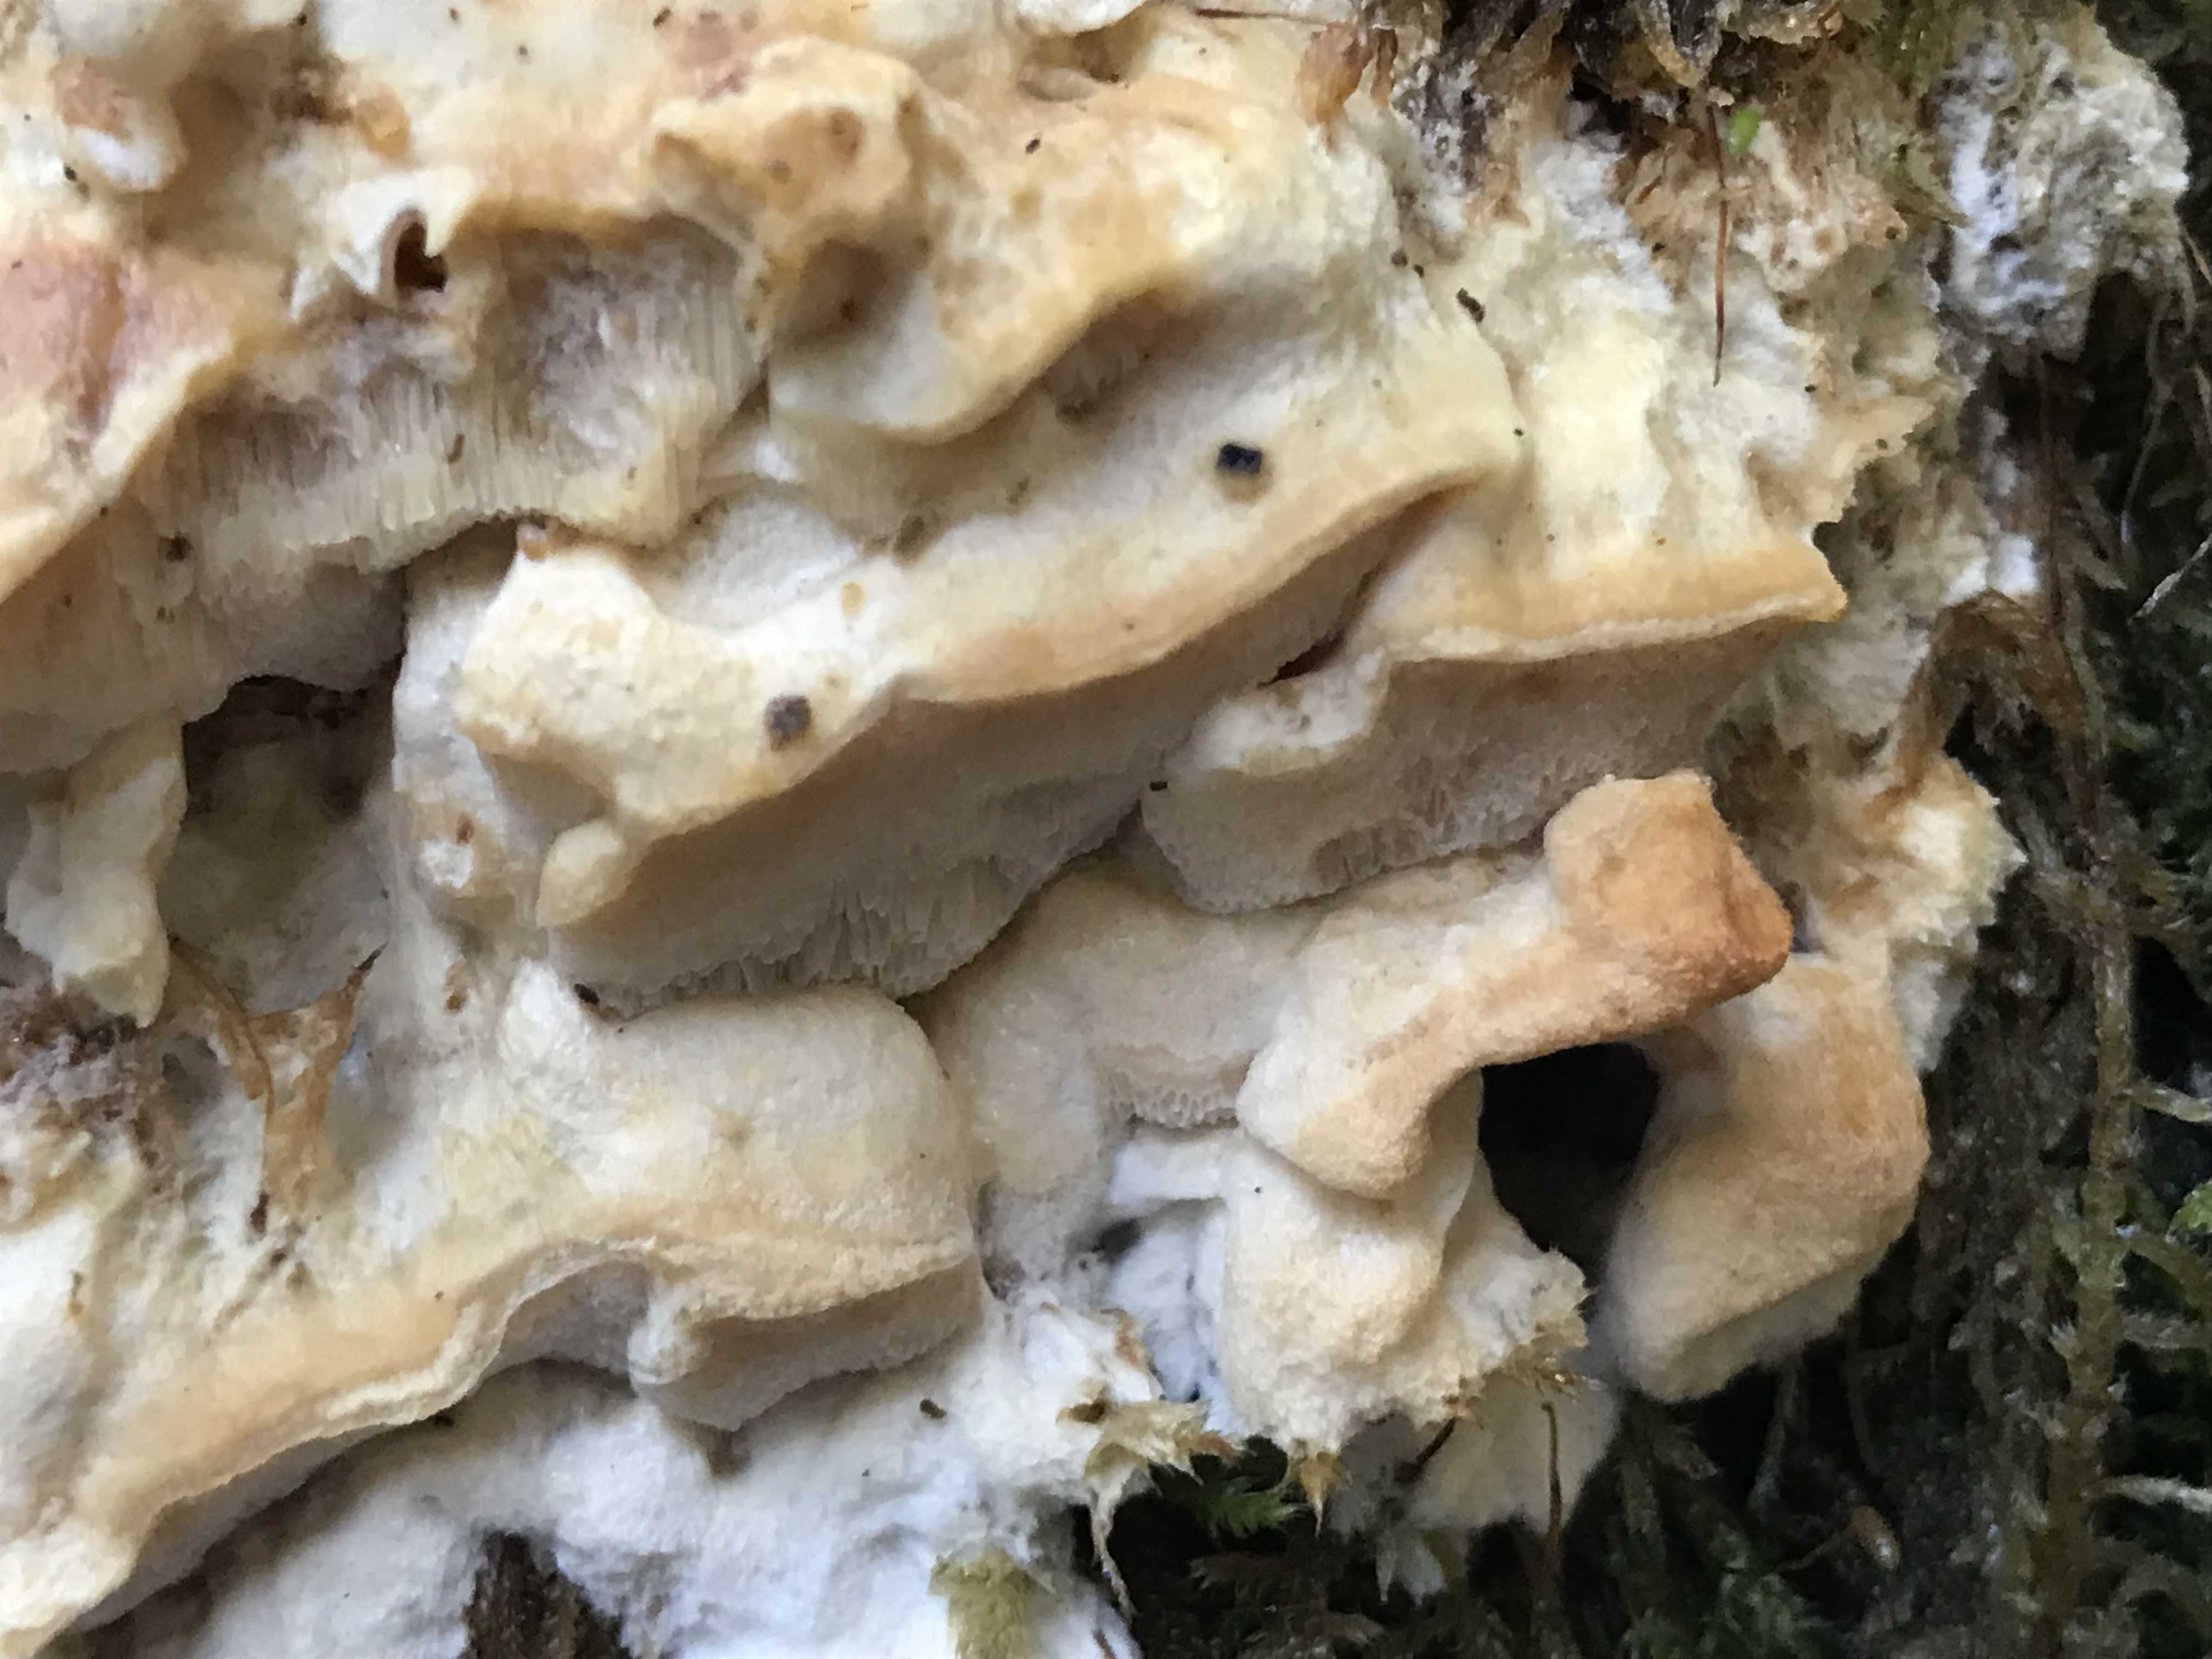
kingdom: Fungi
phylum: Basidiomycota
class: Agaricomycetes
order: Polyporales
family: Steccherinaceae
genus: Antrodiella
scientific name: Antrodiella mentschulensis
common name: abrikosporesvamp
